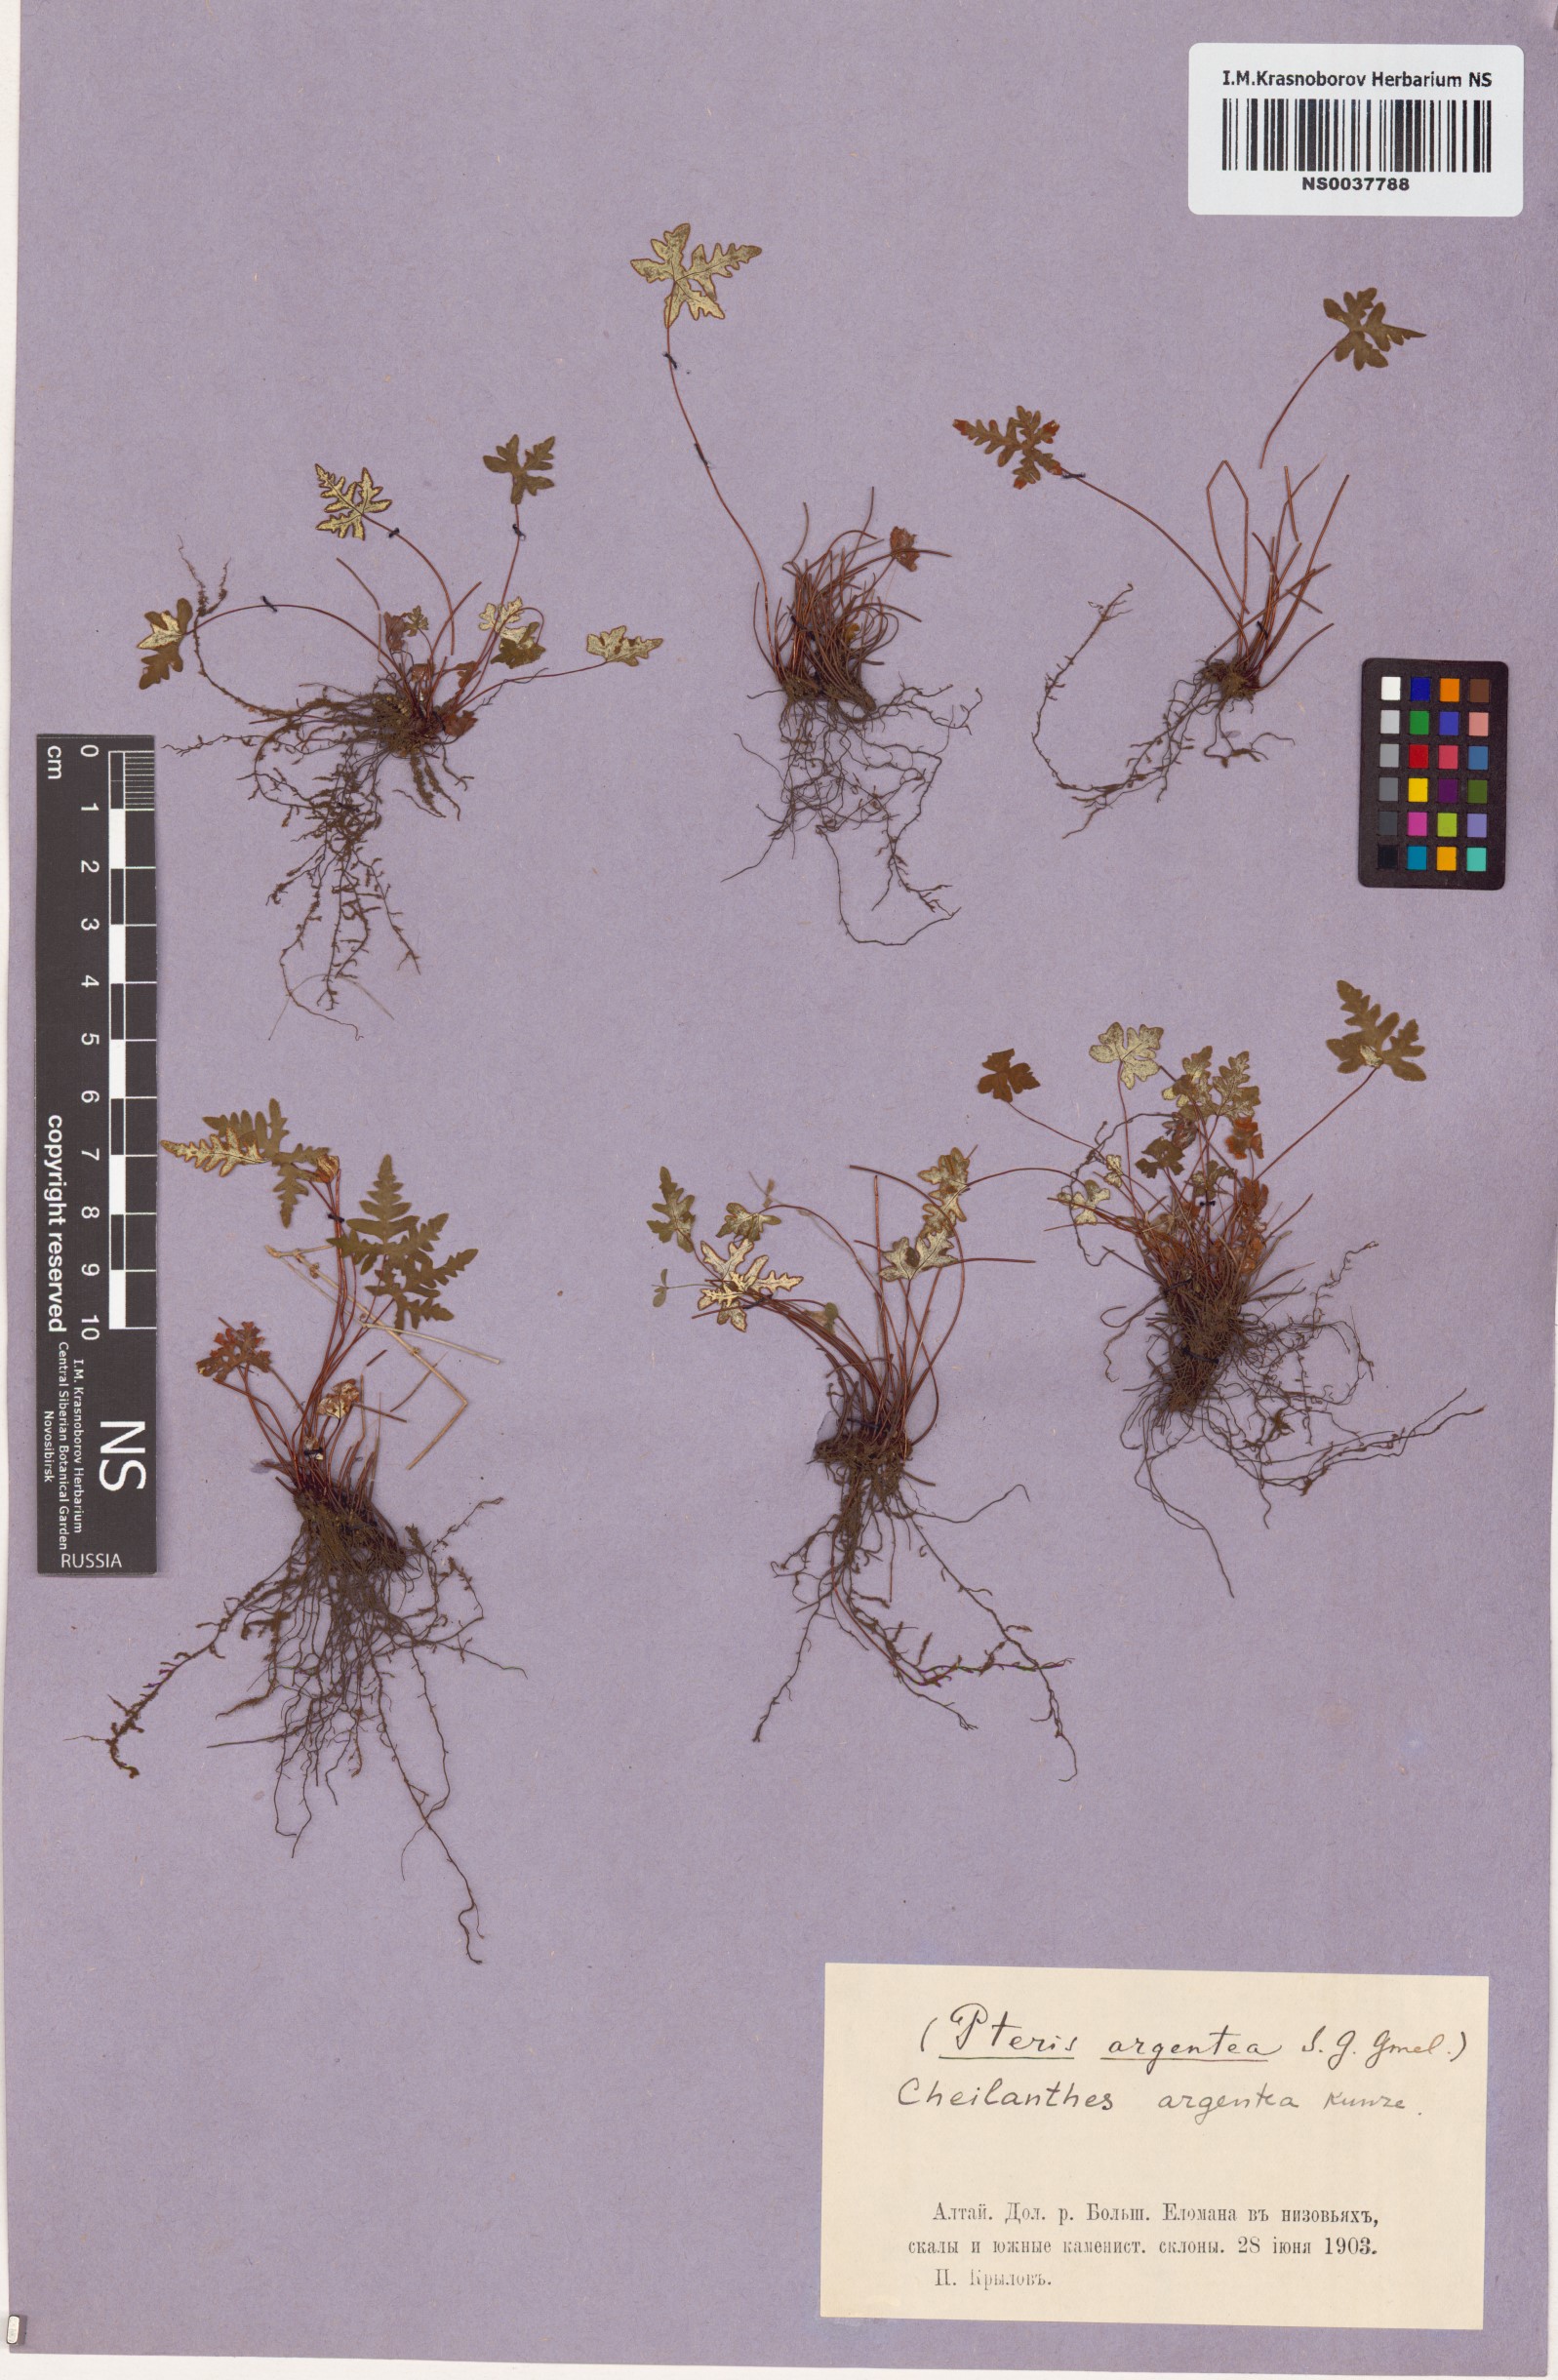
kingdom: Plantae
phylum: Tracheophyta
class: Polypodiopsida
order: Polypodiales
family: Pteridaceae
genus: Aleuritopteris
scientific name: Aleuritopteris argentea
